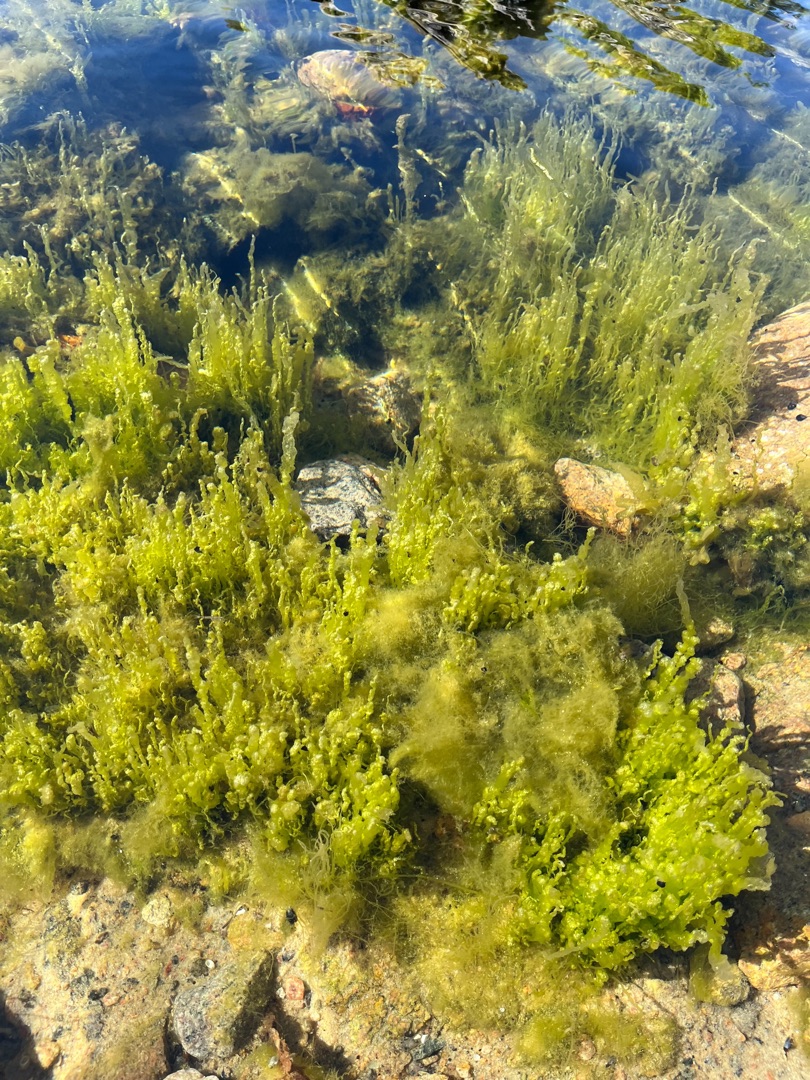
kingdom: Plantae
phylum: Chlorophyta
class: Ulvophyceae
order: Ulvales
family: Ulvaceae
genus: Ulva
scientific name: Ulva intestinalis
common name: Tarm-rørhinde
